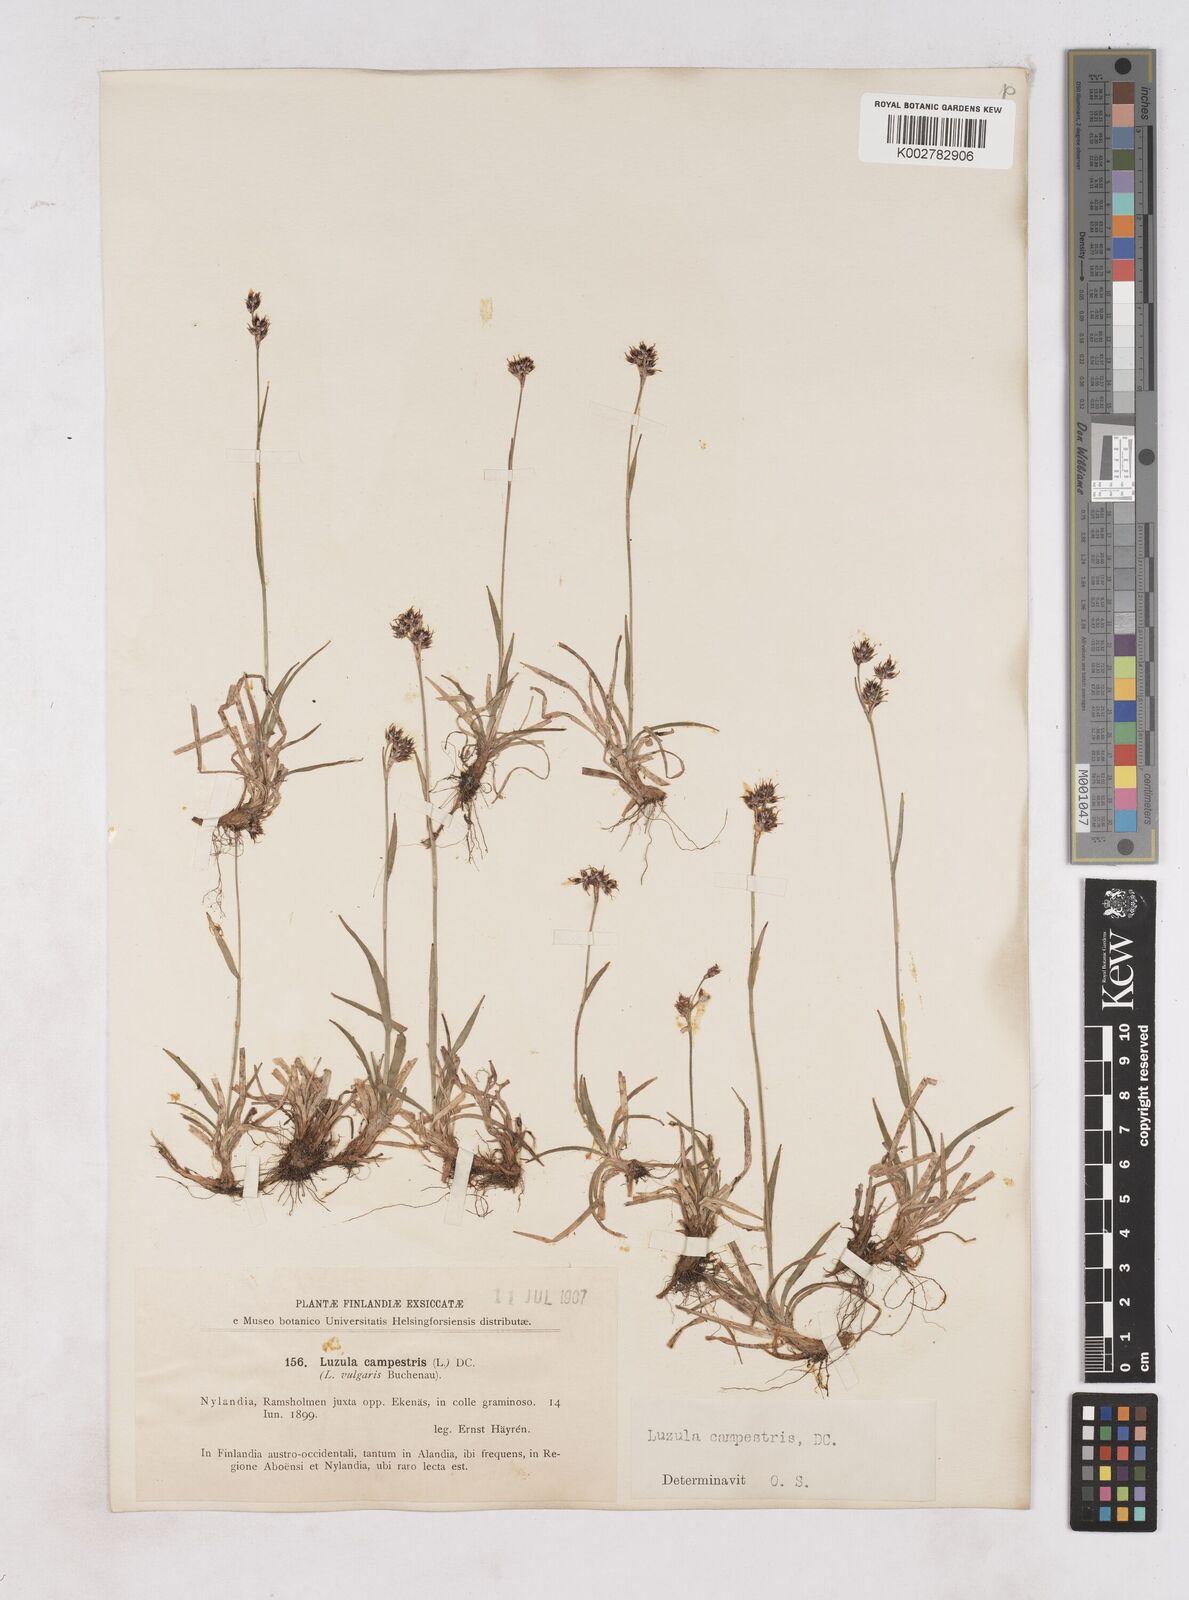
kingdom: Plantae
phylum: Tracheophyta
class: Liliopsida
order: Poales
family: Juncaceae
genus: Luzula
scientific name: Luzula campestris
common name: Field wood-rush
